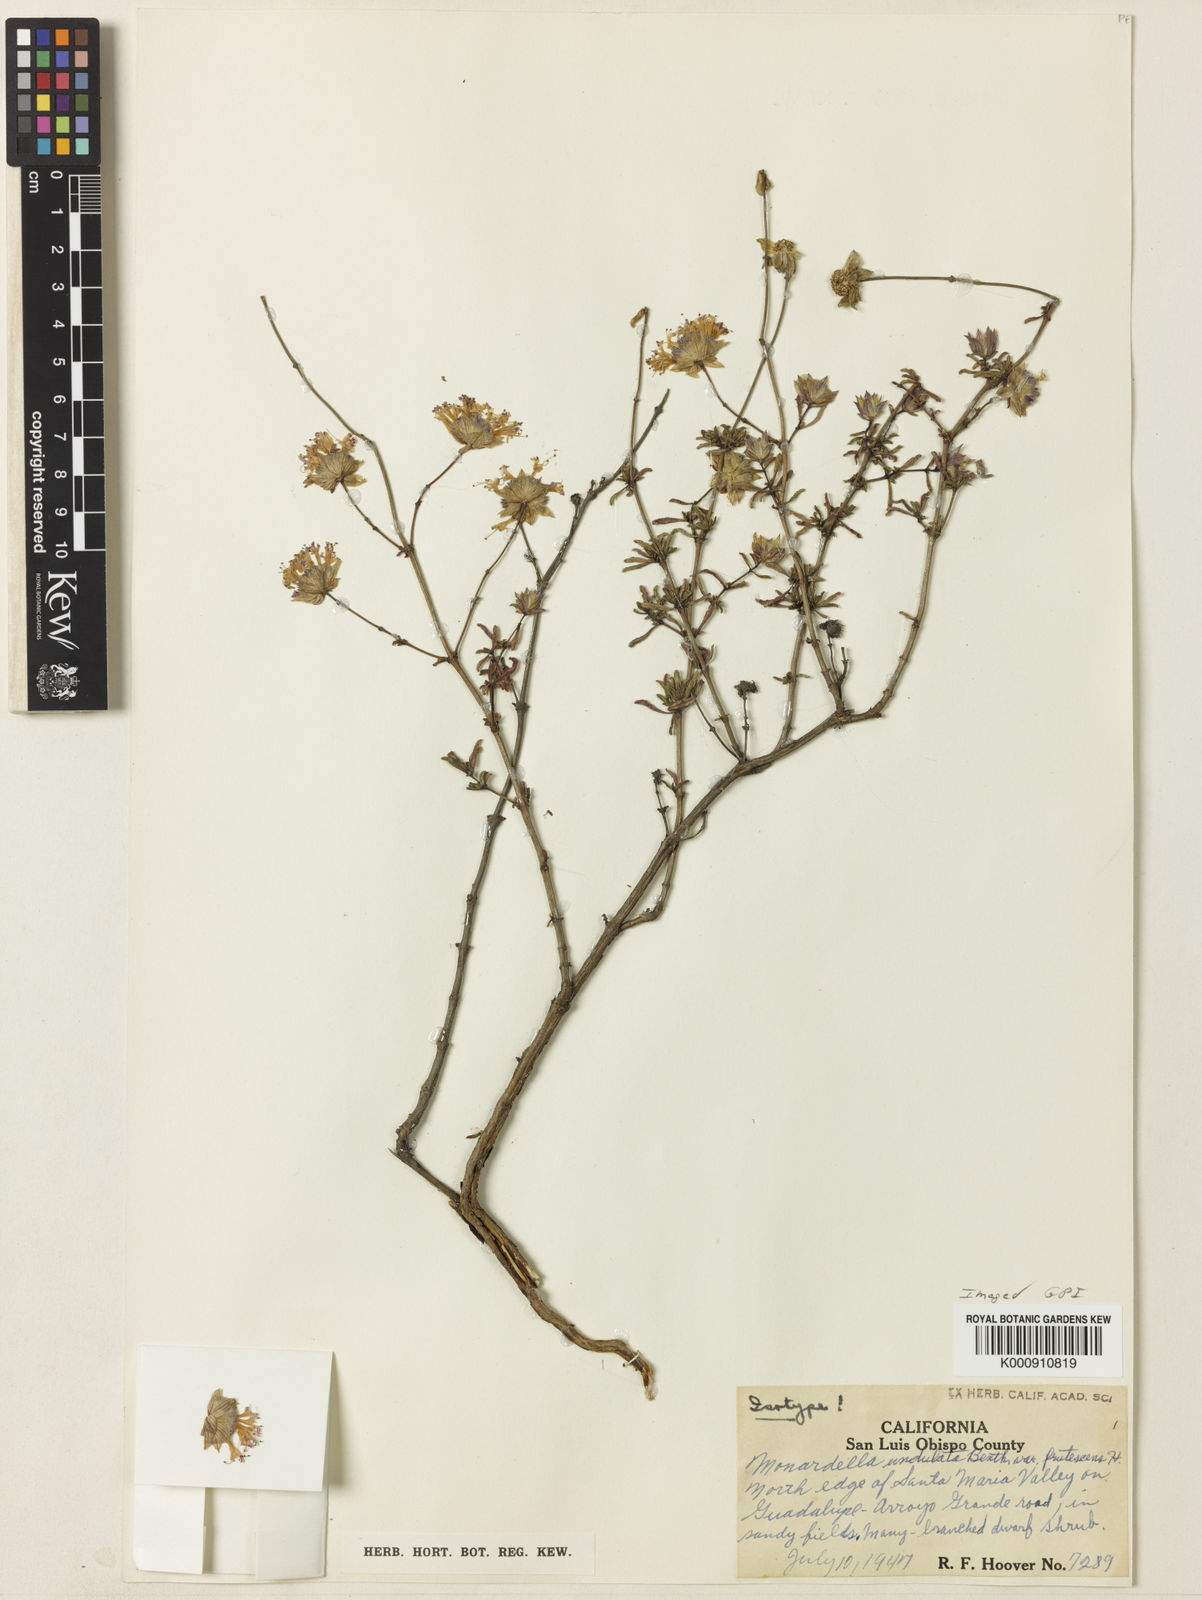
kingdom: Plantae
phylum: Tracheophyta
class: Magnoliopsida
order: Lamiales
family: Lamiaceae
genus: Monardella
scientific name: Monardella undulata
